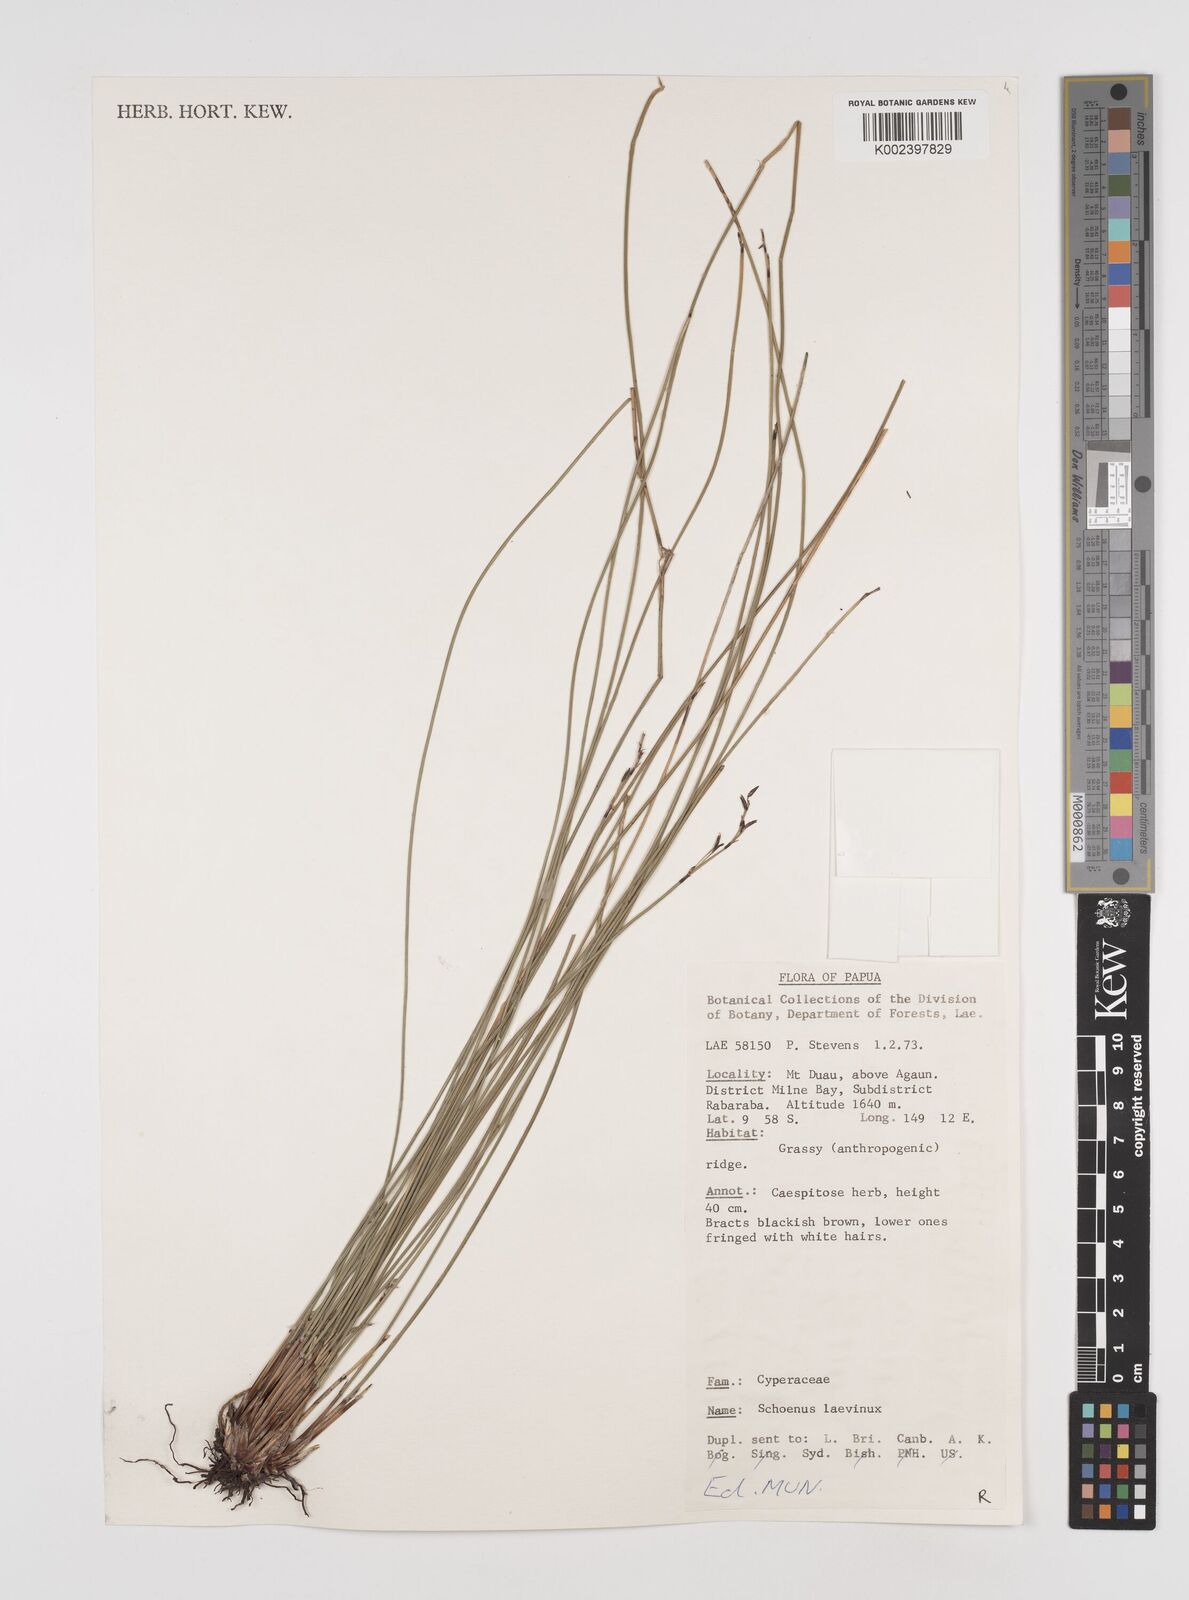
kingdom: Plantae
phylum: Tracheophyta
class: Liliopsida
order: Poales
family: Cyperaceae
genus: Schoenus
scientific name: Schoenus laevinux
